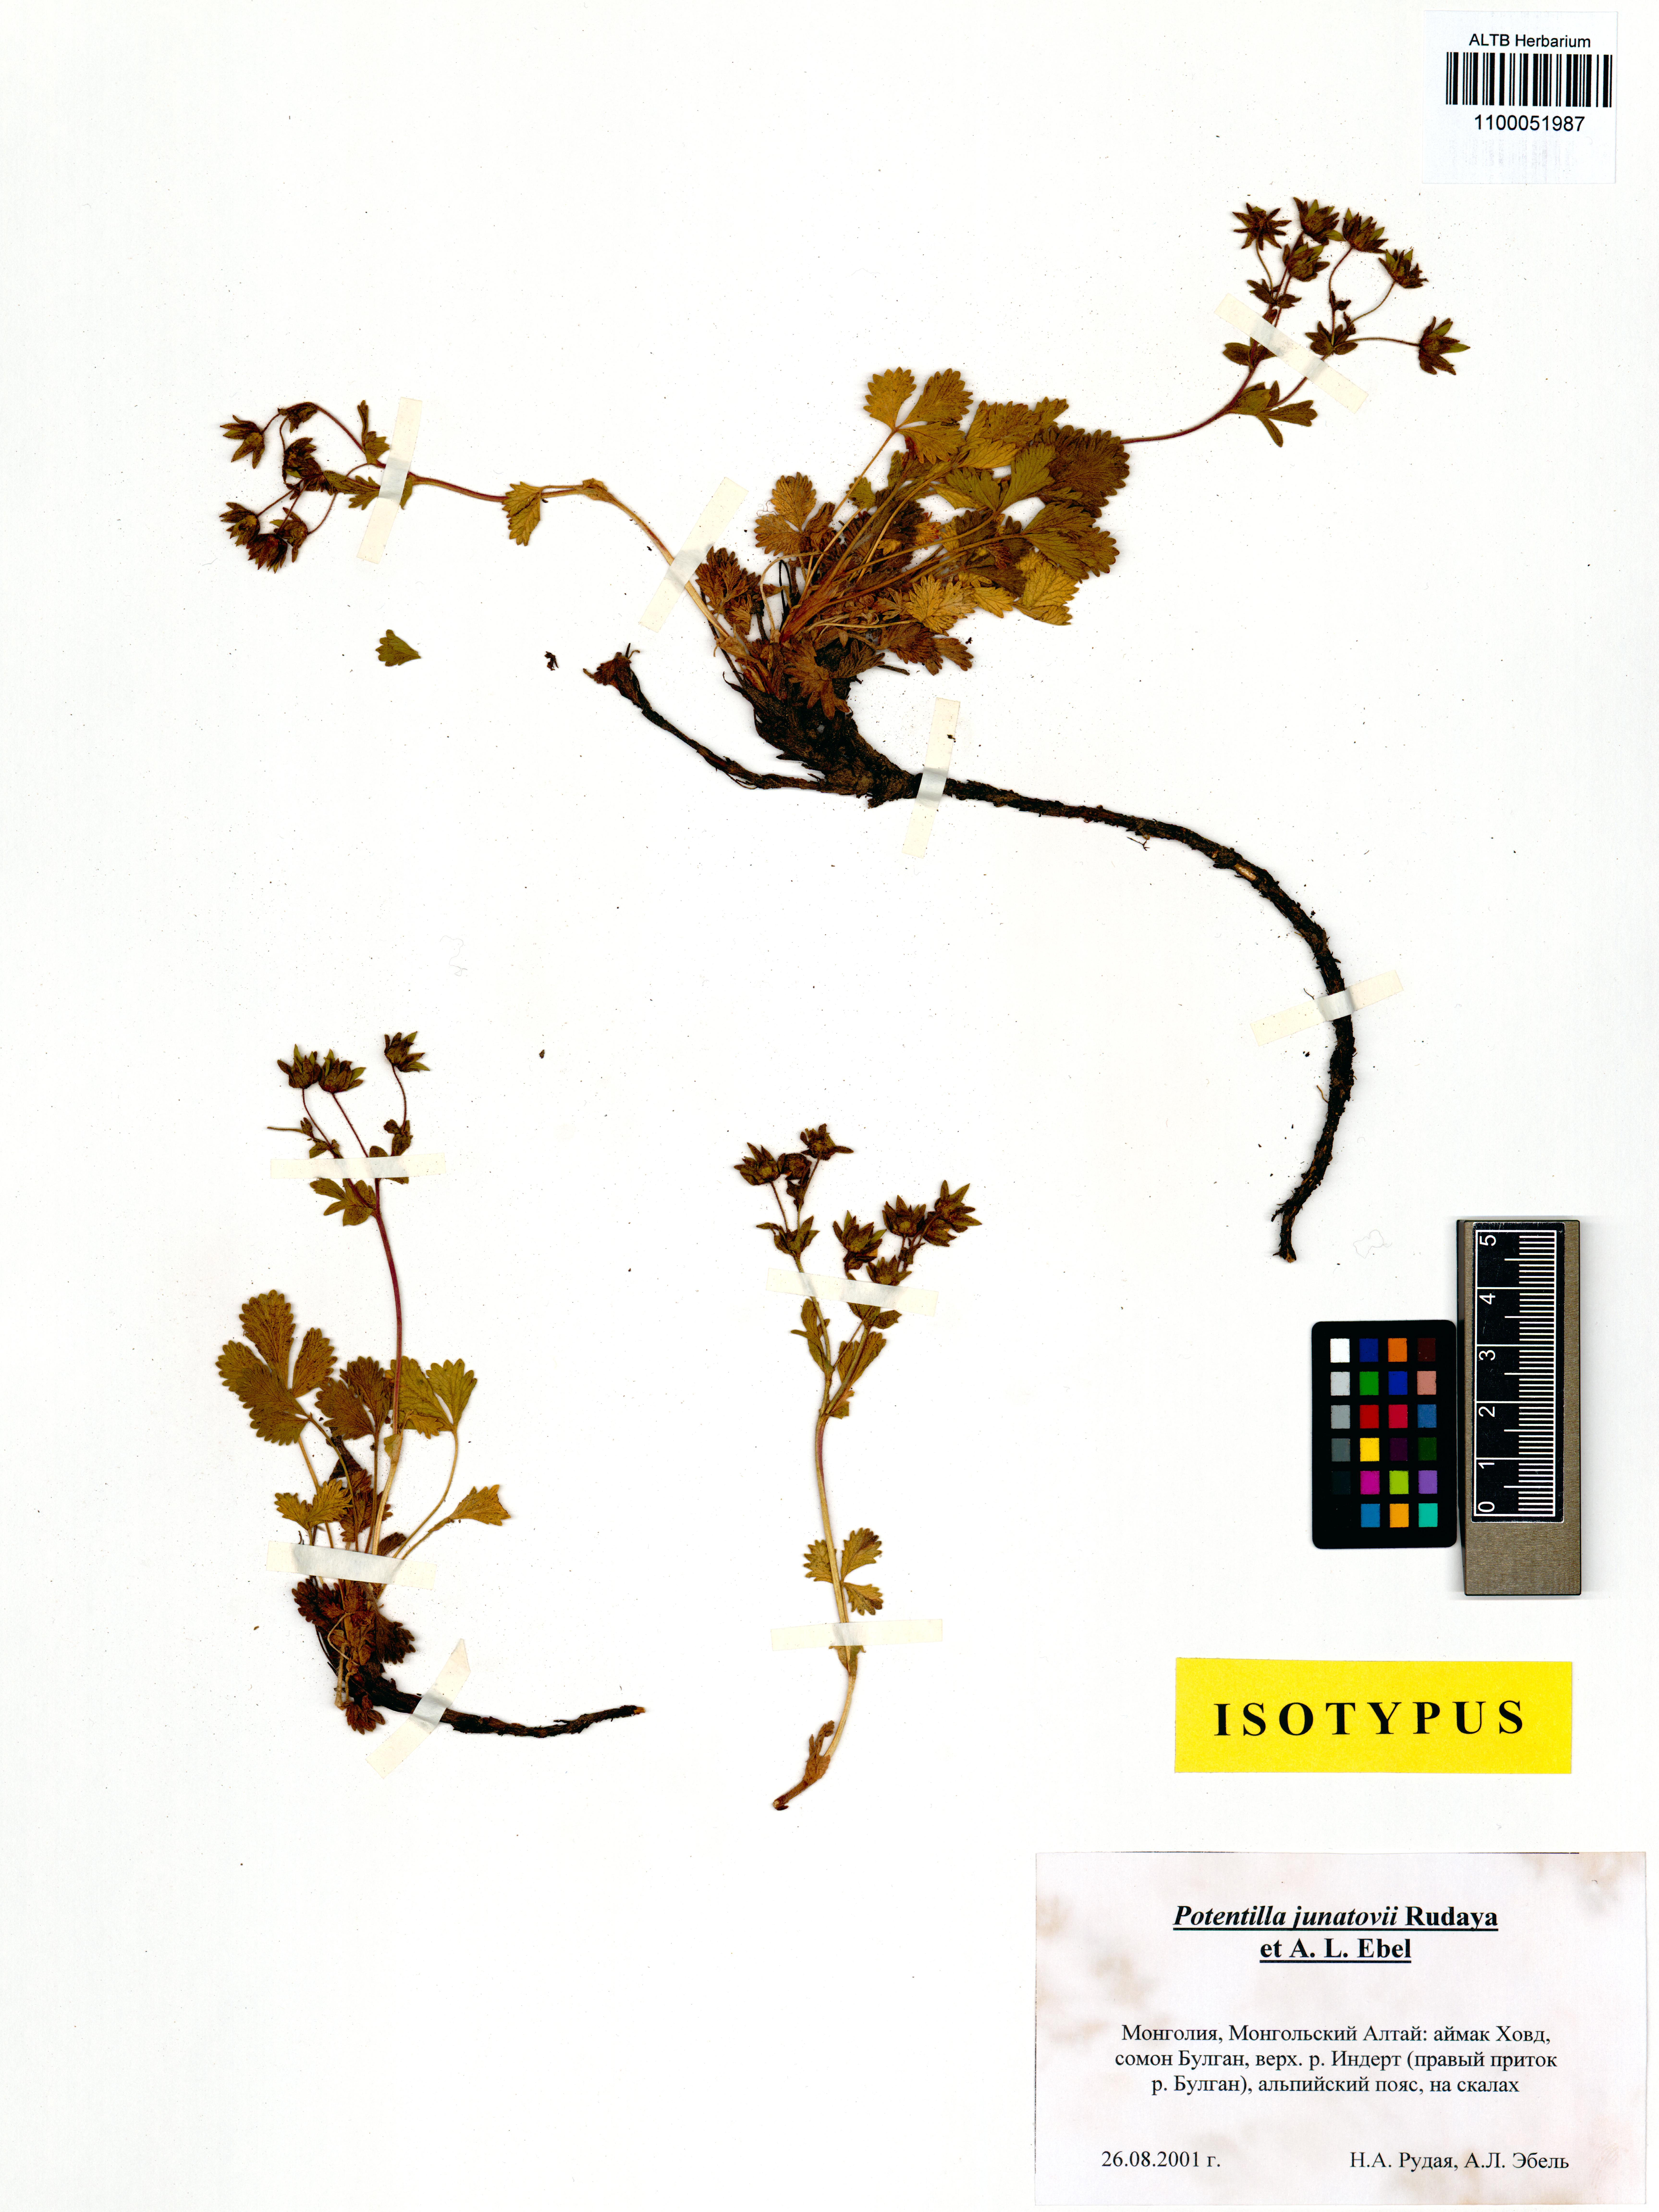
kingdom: Plantae
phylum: Tracheophyta
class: Magnoliopsida
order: Rosales
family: Rosaceae
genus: Potentilla
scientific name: Potentilla junatovii
